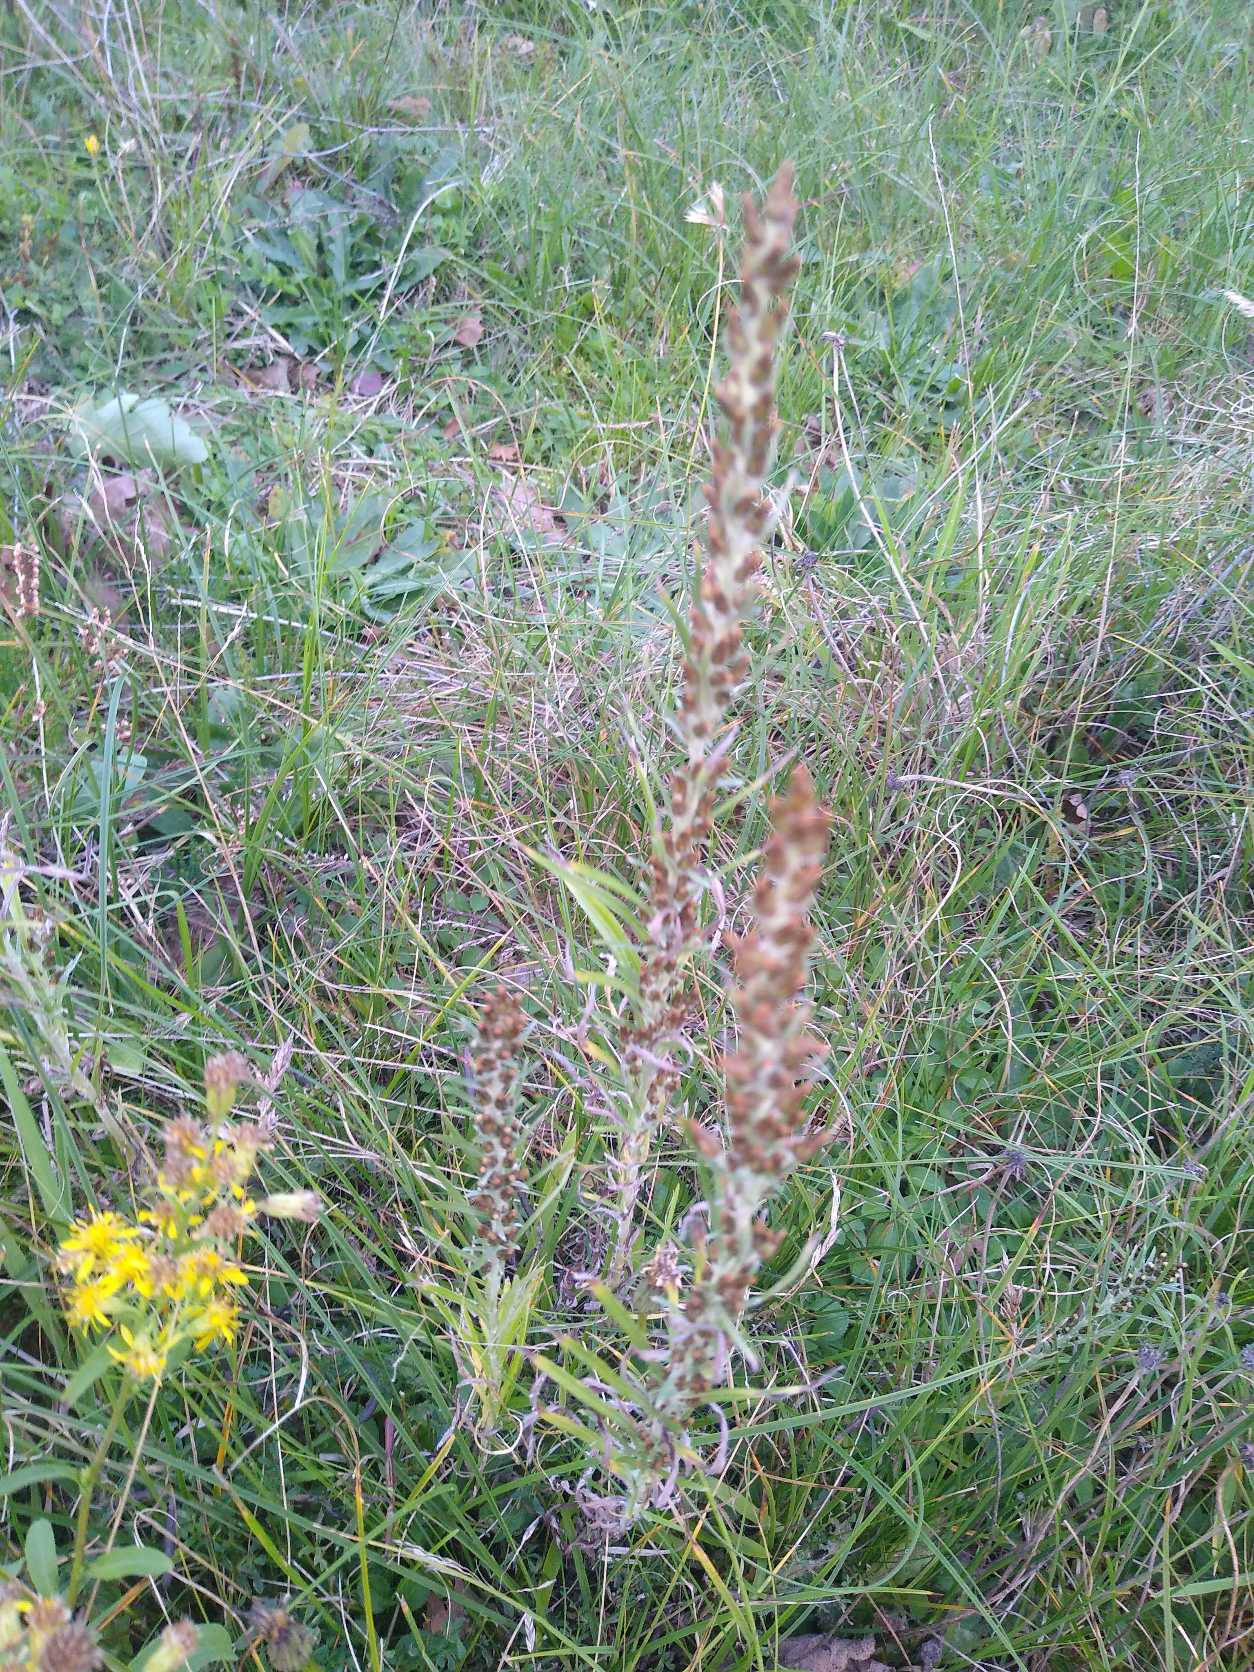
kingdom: Plantae
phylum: Tracheophyta
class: Magnoliopsida
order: Asterales
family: Asteraceae
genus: Omalotheca
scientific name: Omalotheca sylvatica
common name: Rank evighedsblomst
